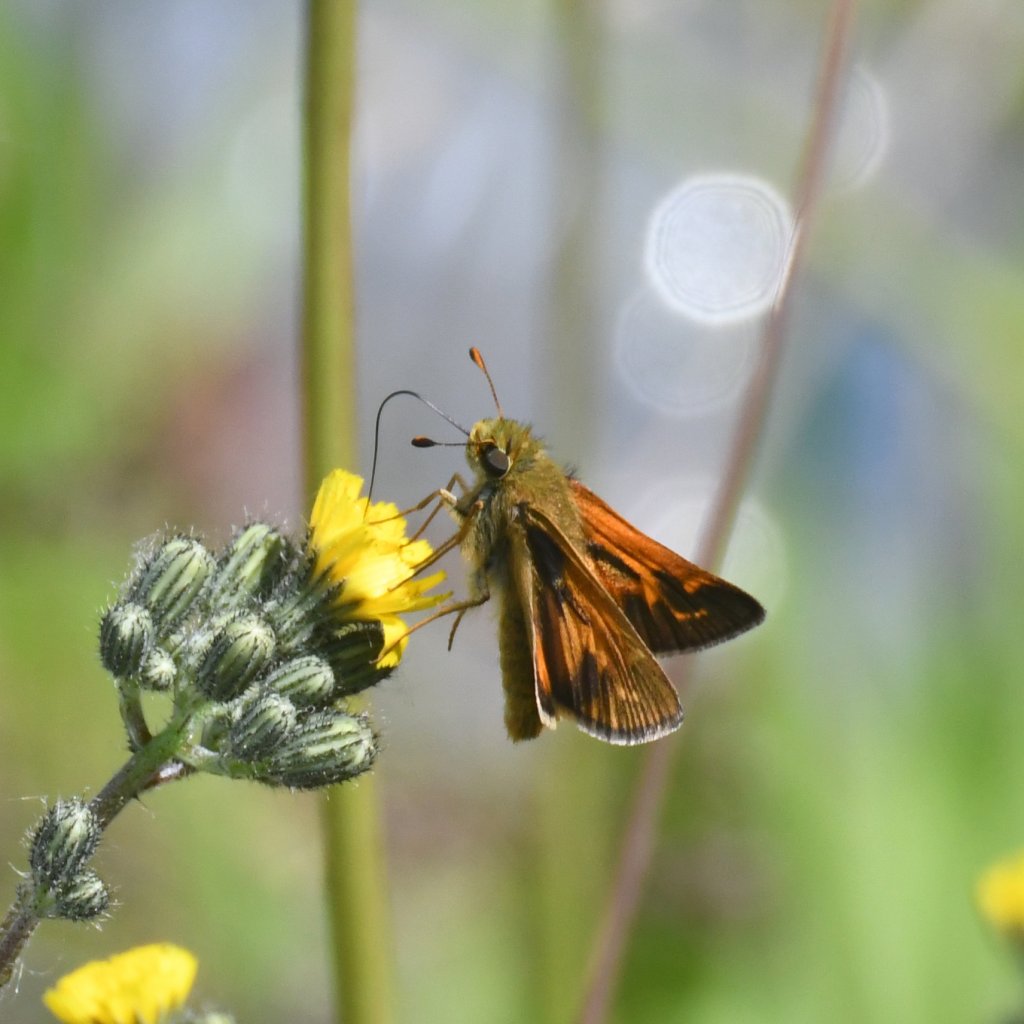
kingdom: Animalia
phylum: Arthropoda
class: Insecta
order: Lepidoptera
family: Hesperiidae
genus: Hesperia
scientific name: Hesperia sassacus
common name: Sassacus Skipper
